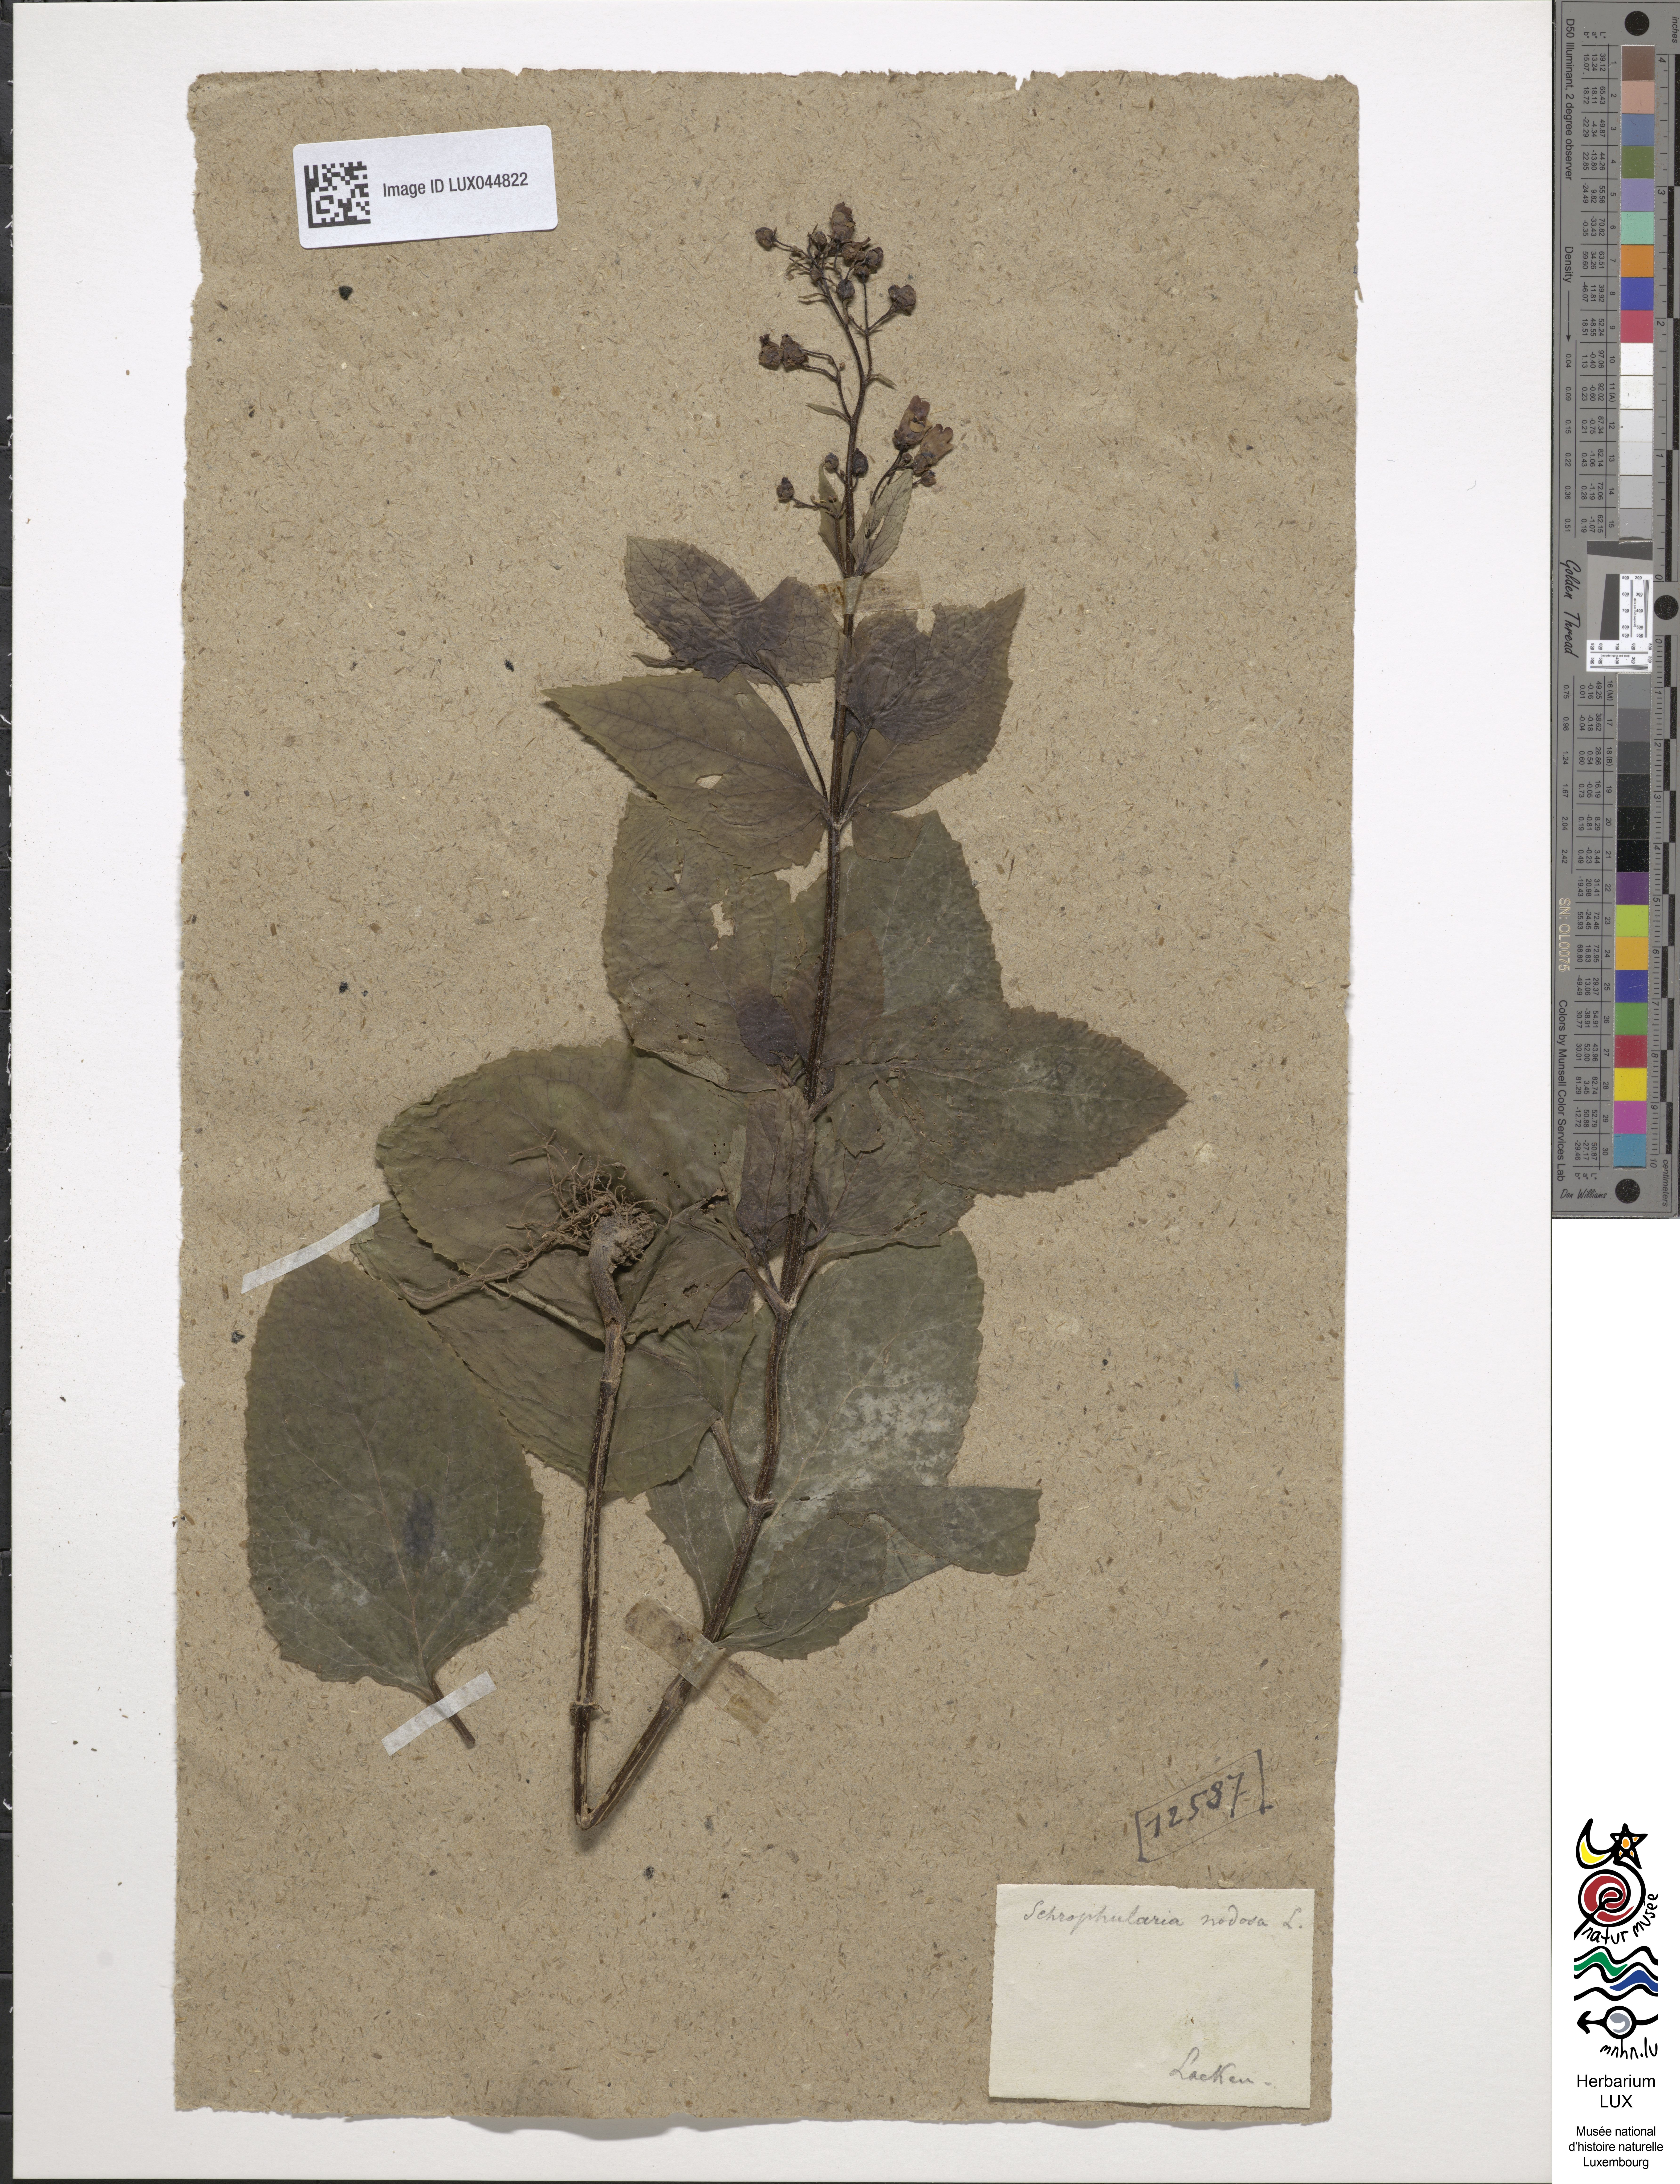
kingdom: Plantae
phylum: Tracheophyta
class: Magnoliopsida
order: Lamiales
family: Scrophulariaceae
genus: Scrophularia
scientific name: Scrophularia nodosa
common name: Common figwort
